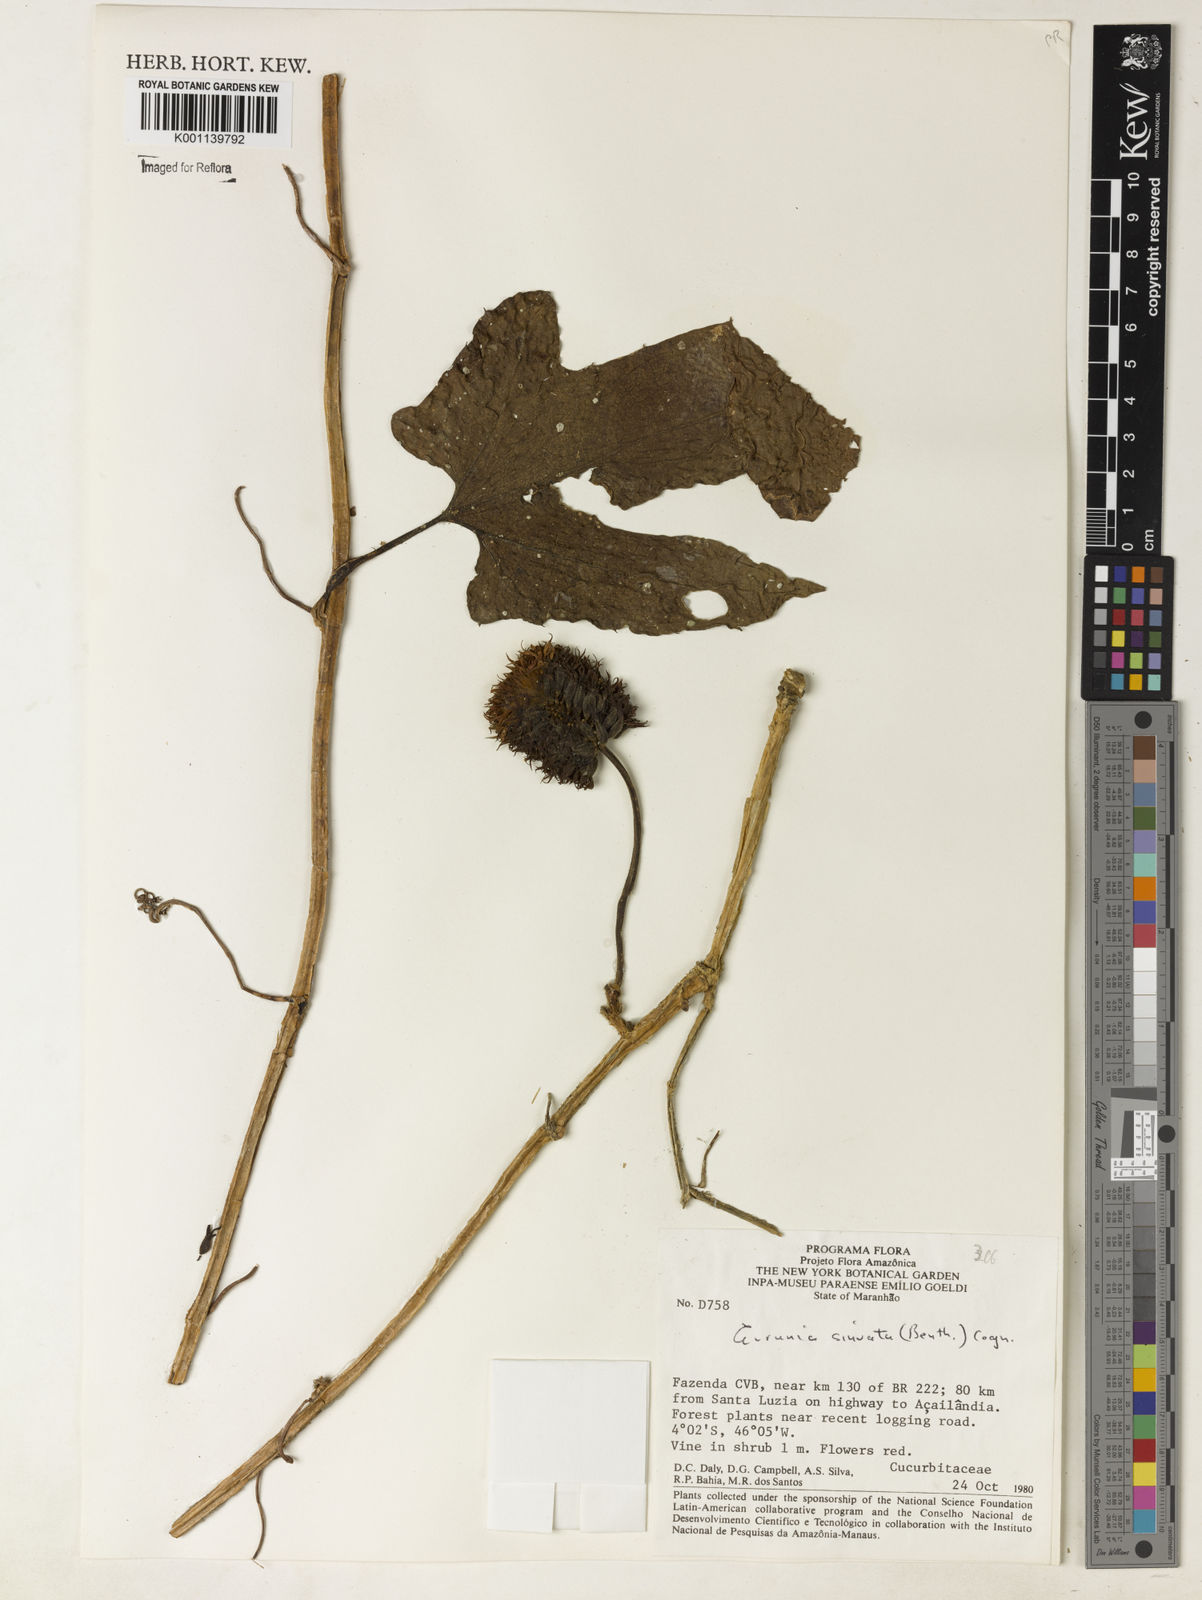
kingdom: Plantae
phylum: Tracheophyta
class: Magnoliopsida
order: Cucurbitales
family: Cucurbitaceae
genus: Gurania
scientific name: Gurania sinuata
